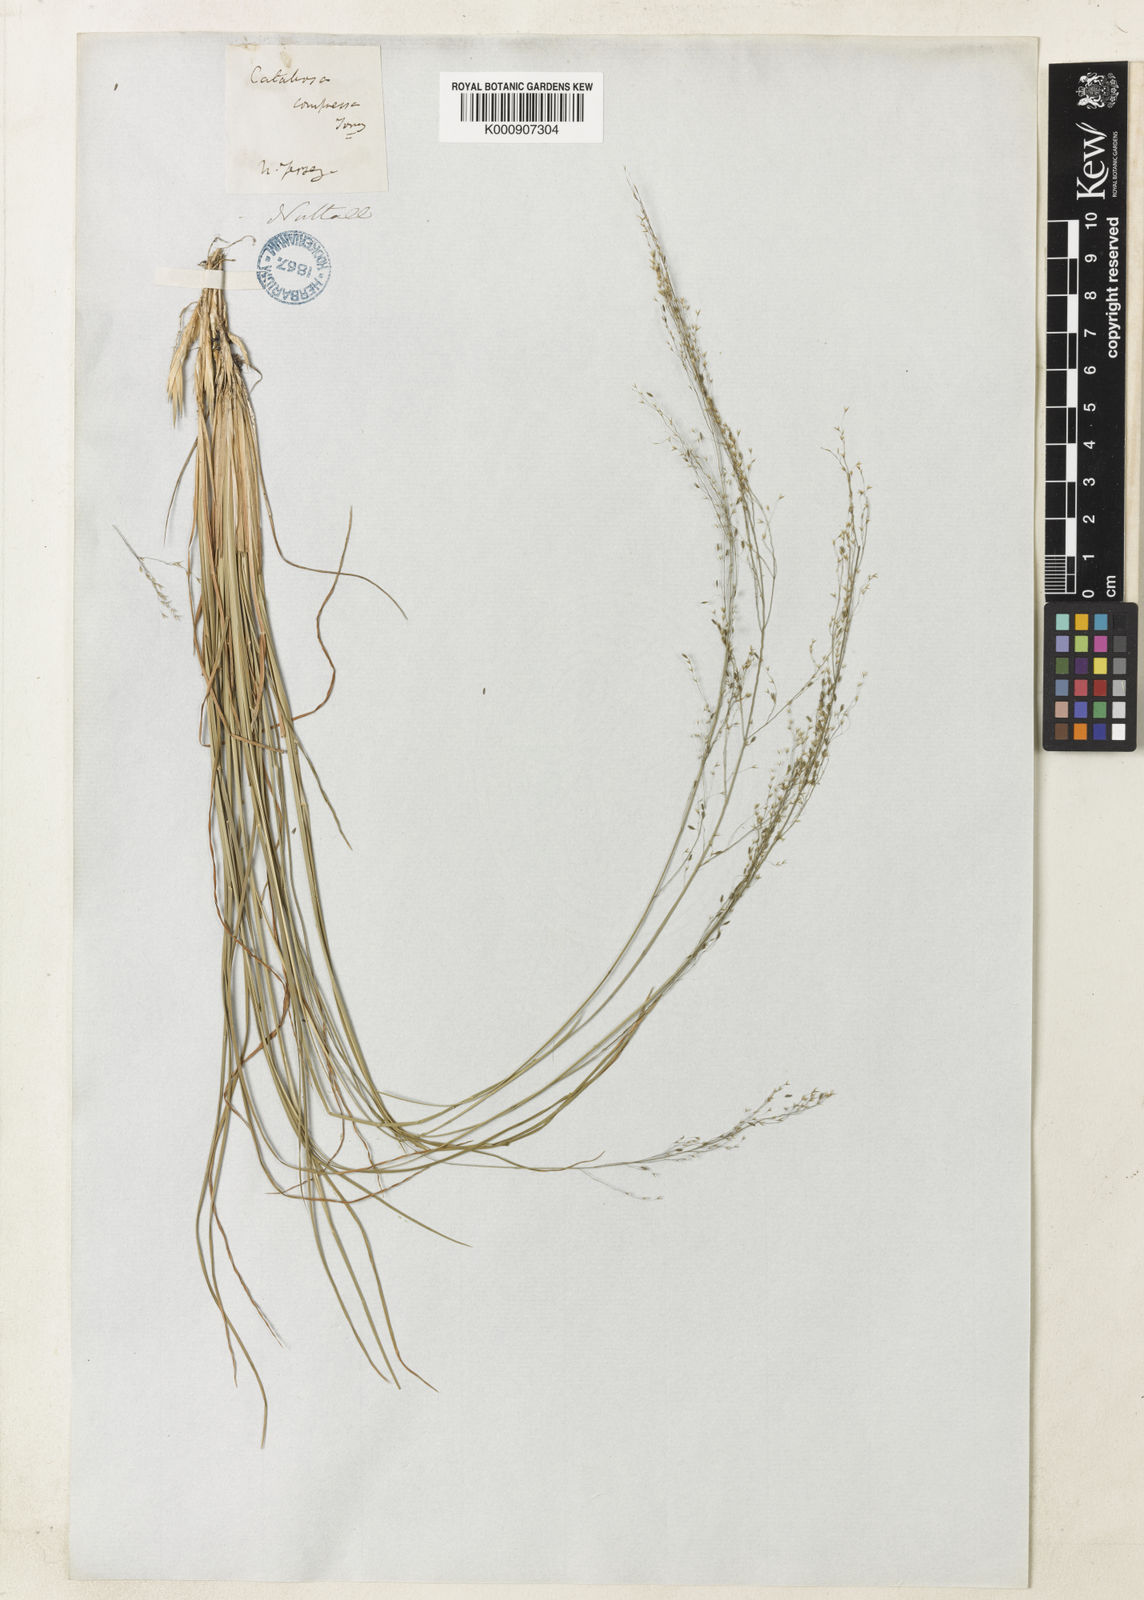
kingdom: Plantae
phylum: Tracheophyta
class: Liliopsida
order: Poales
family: Poaceae
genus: Muhlenbergia
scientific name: Muhlenbergia uniflora
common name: Bog muhly
